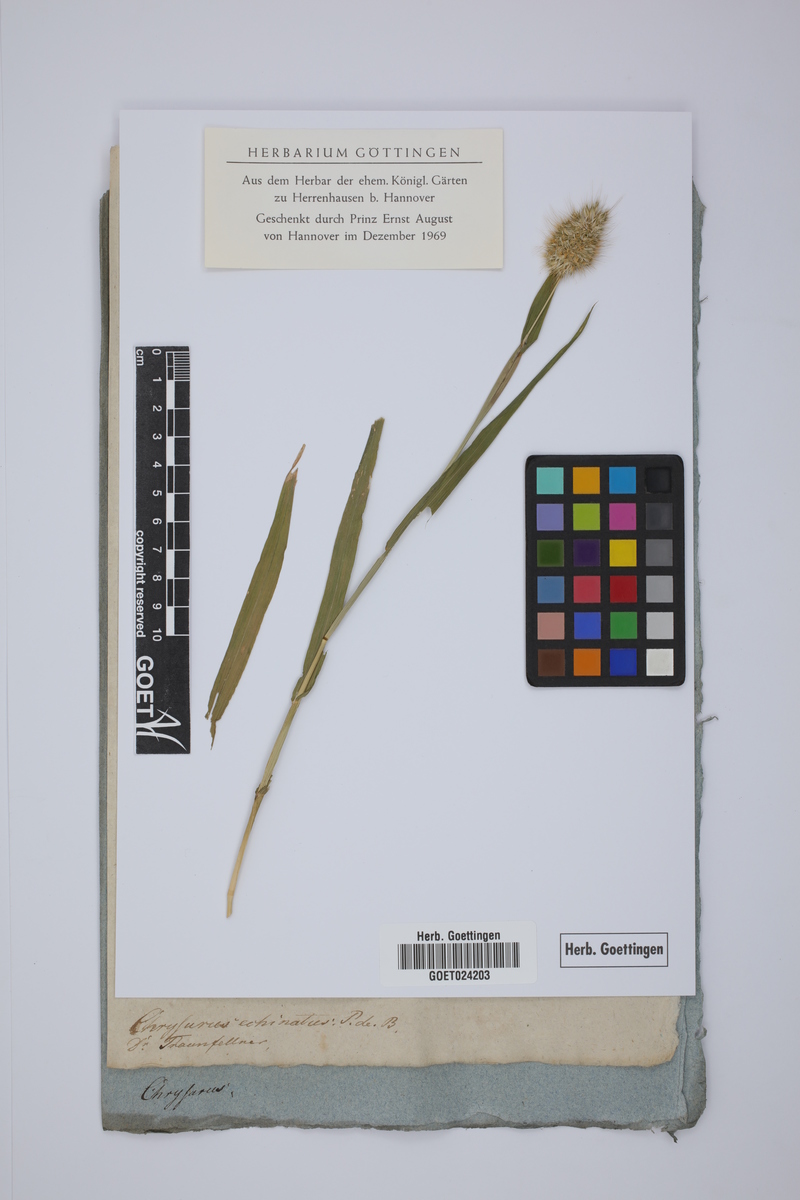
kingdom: Plantae
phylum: Tracheophyta
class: Liliopsida
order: Poales
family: Poaceae
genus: Cynosurus
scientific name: Cynosurus echinatus
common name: Rough dog's-tail
